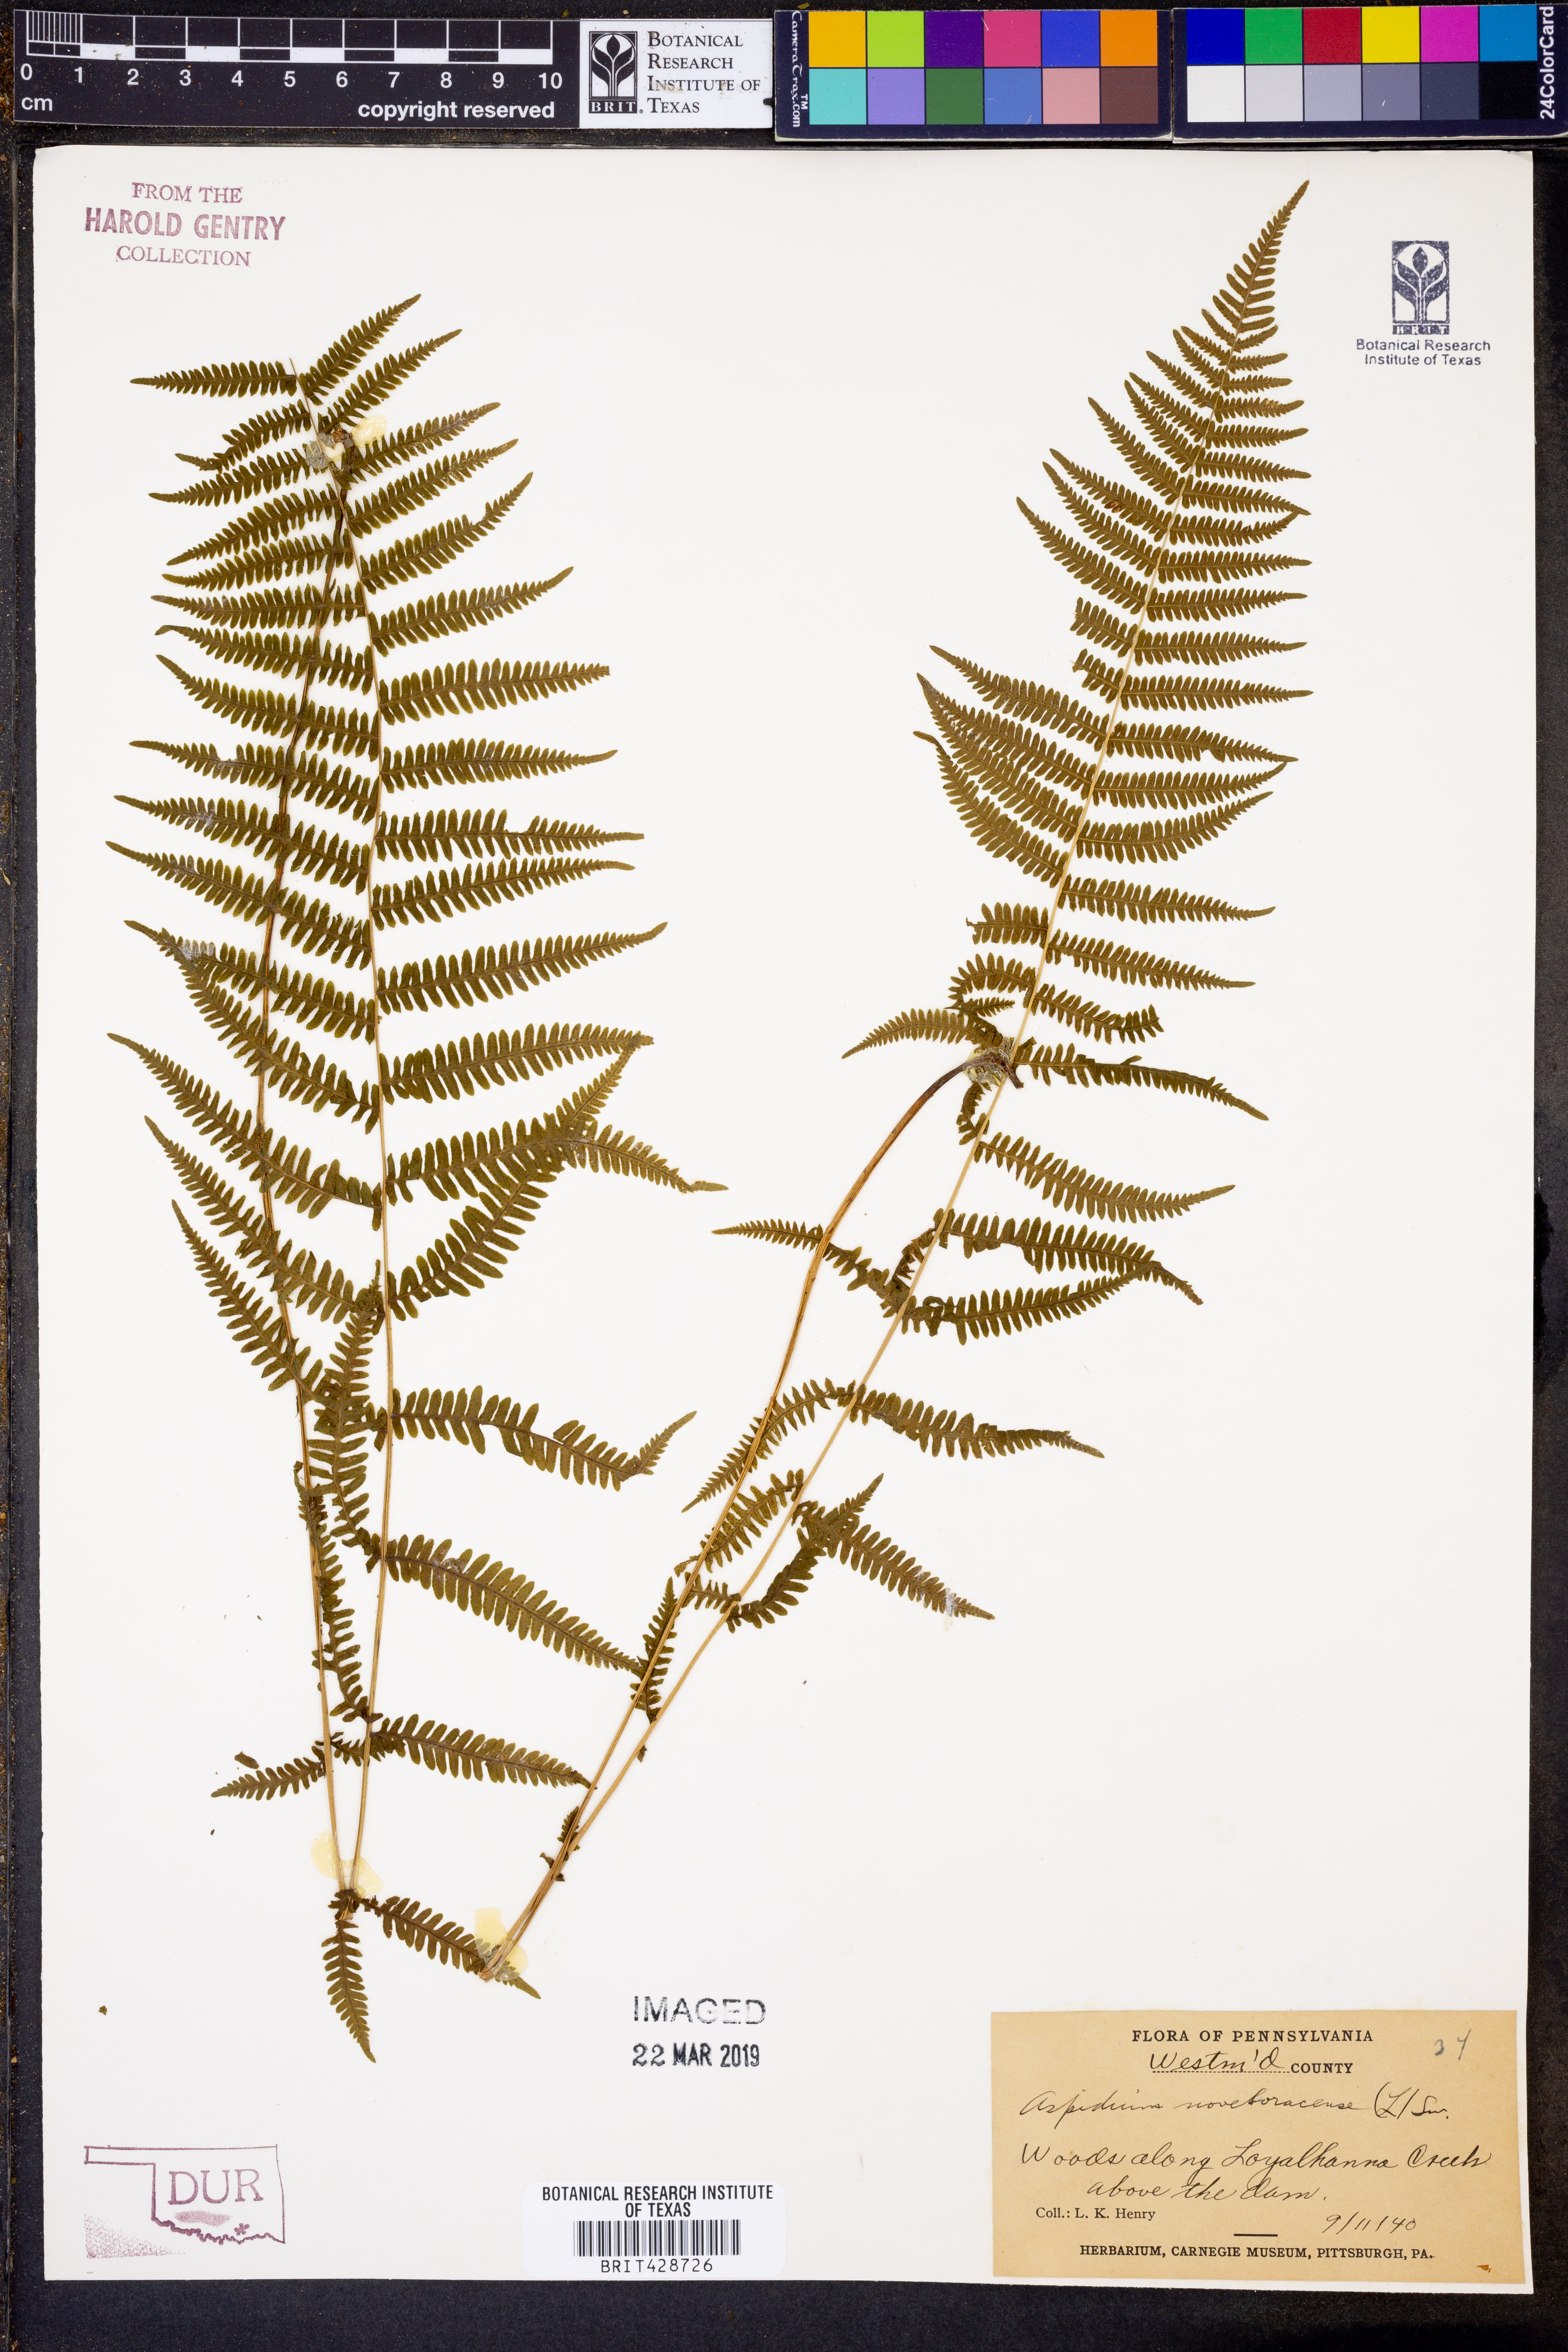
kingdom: Plantae
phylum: Tracheophyta
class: Polypodiopsida
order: Polypodiales
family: Thelypteridaceae
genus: Amauropelta
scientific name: Amauropelta noveboracensis
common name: New york fern
